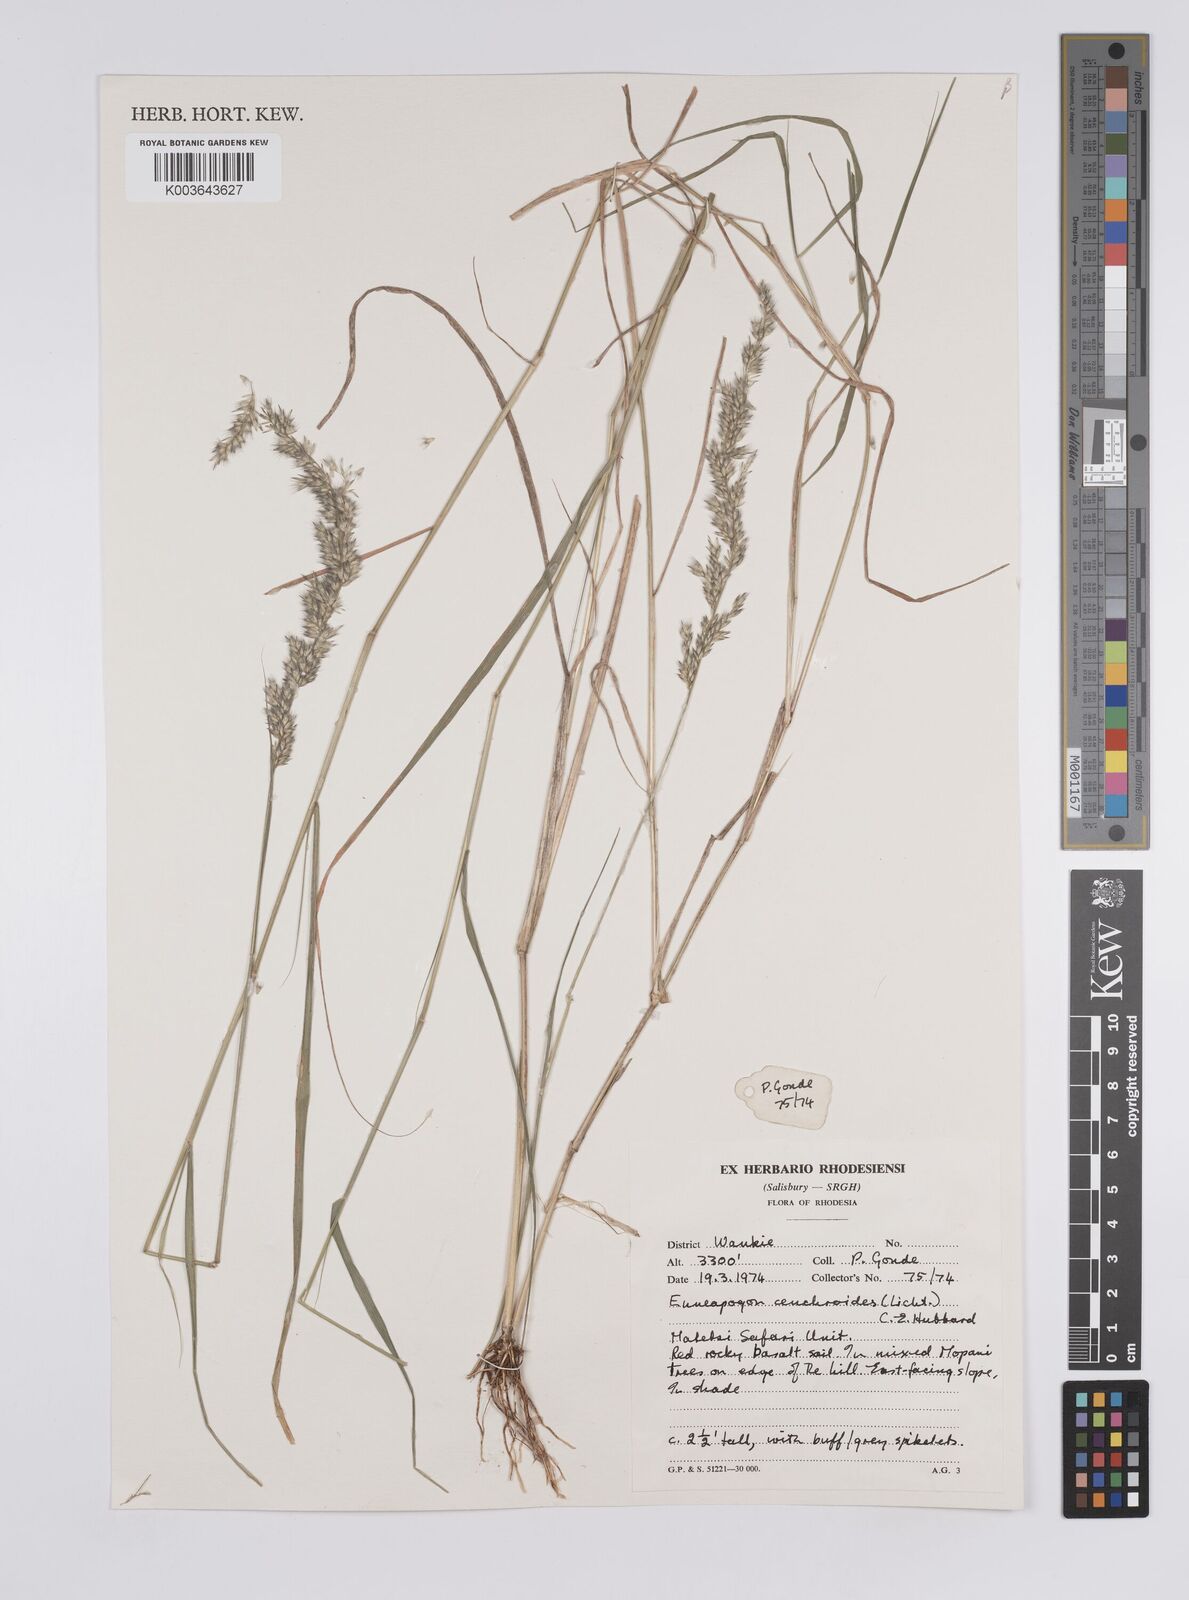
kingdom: Plantae
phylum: Tracheophyta
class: Liliopsida
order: Poales
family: Poaceae
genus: Enneapogon
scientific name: Enneapogon cenchroides
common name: Soft feather pappusgrass
